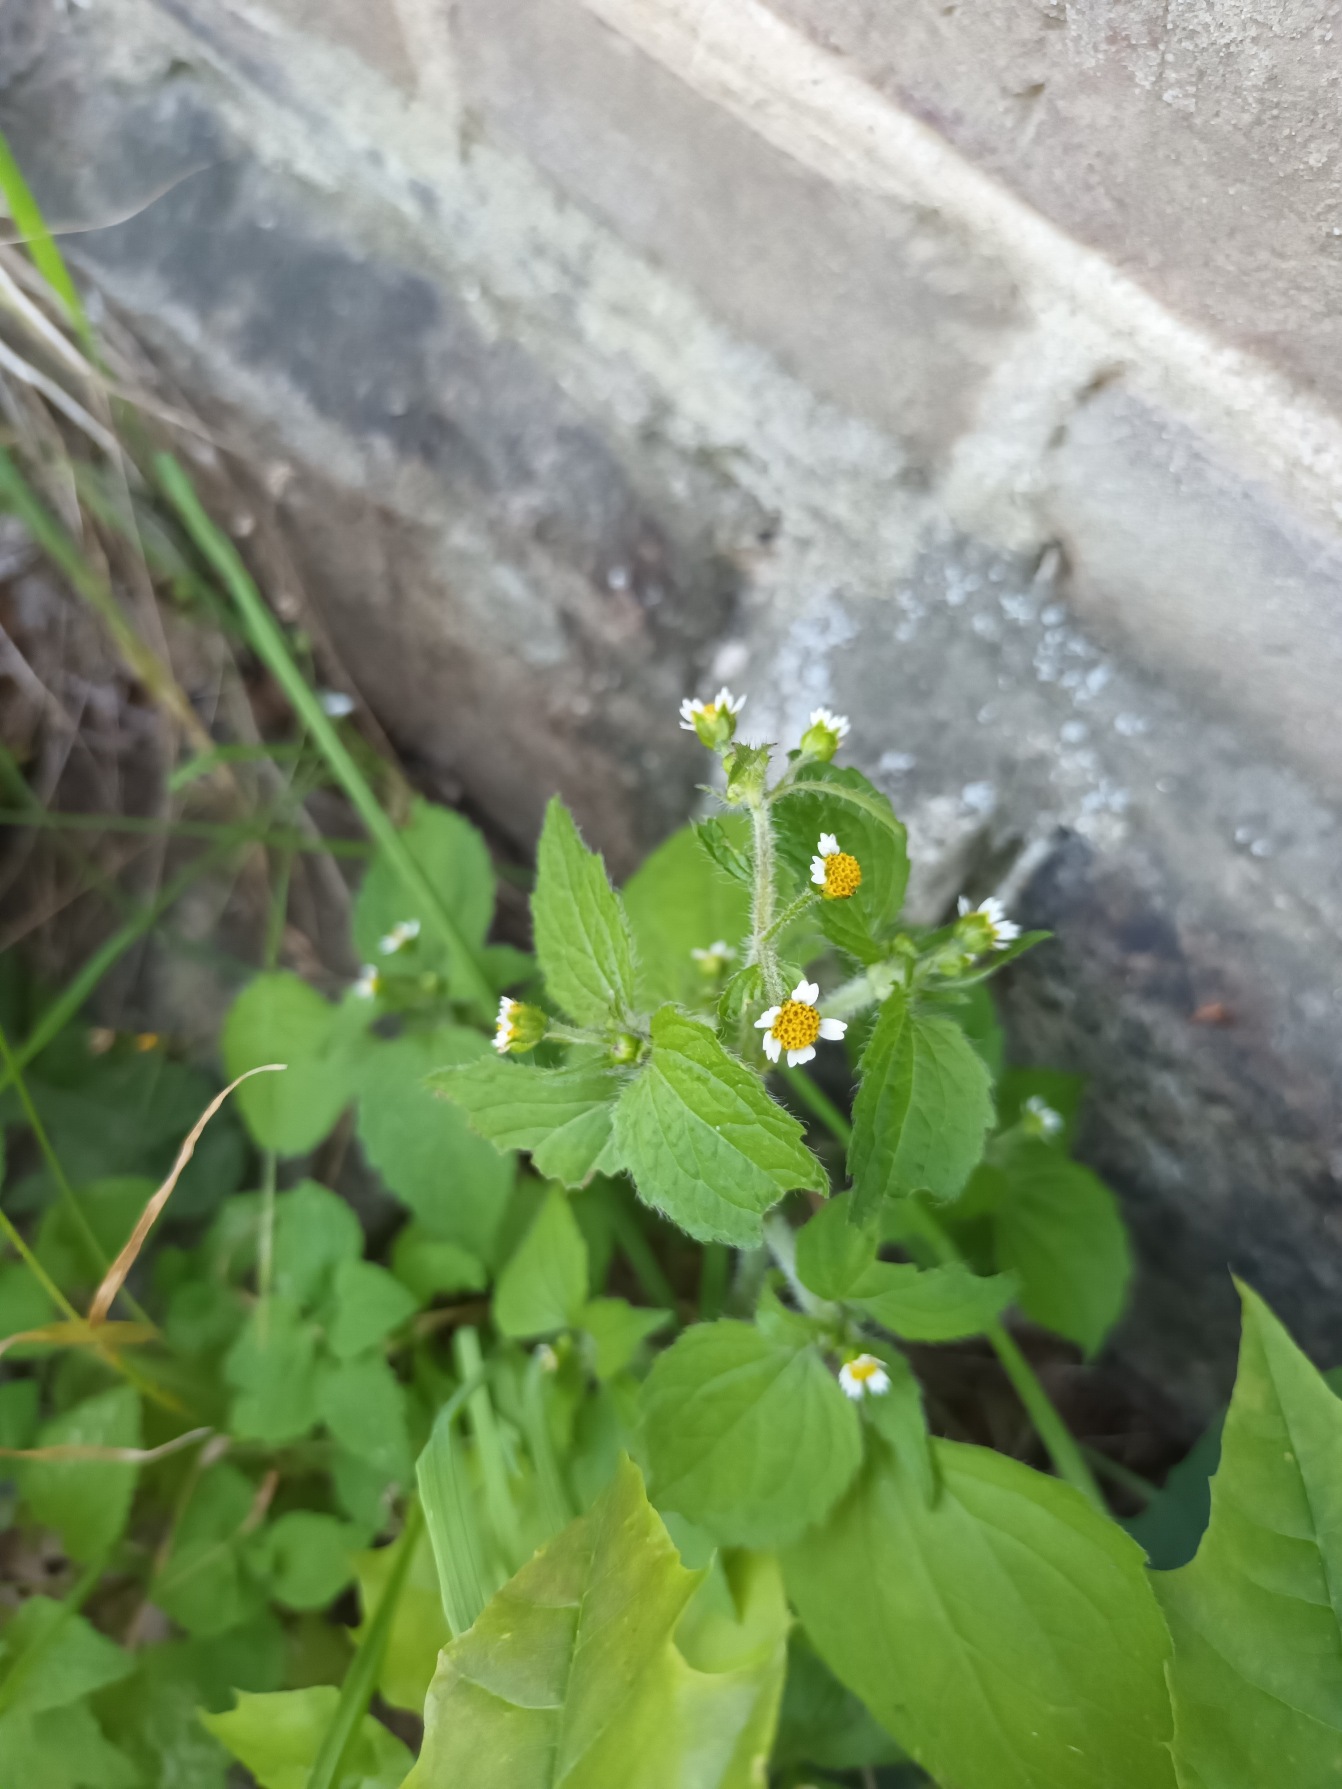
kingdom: Plantae
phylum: Tracheophyta
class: Magnoliopsida
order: Asterales
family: Asteraceae
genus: Galinsoga
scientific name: Galinsoga quadriradiata
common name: Kirtel-kortstråle
